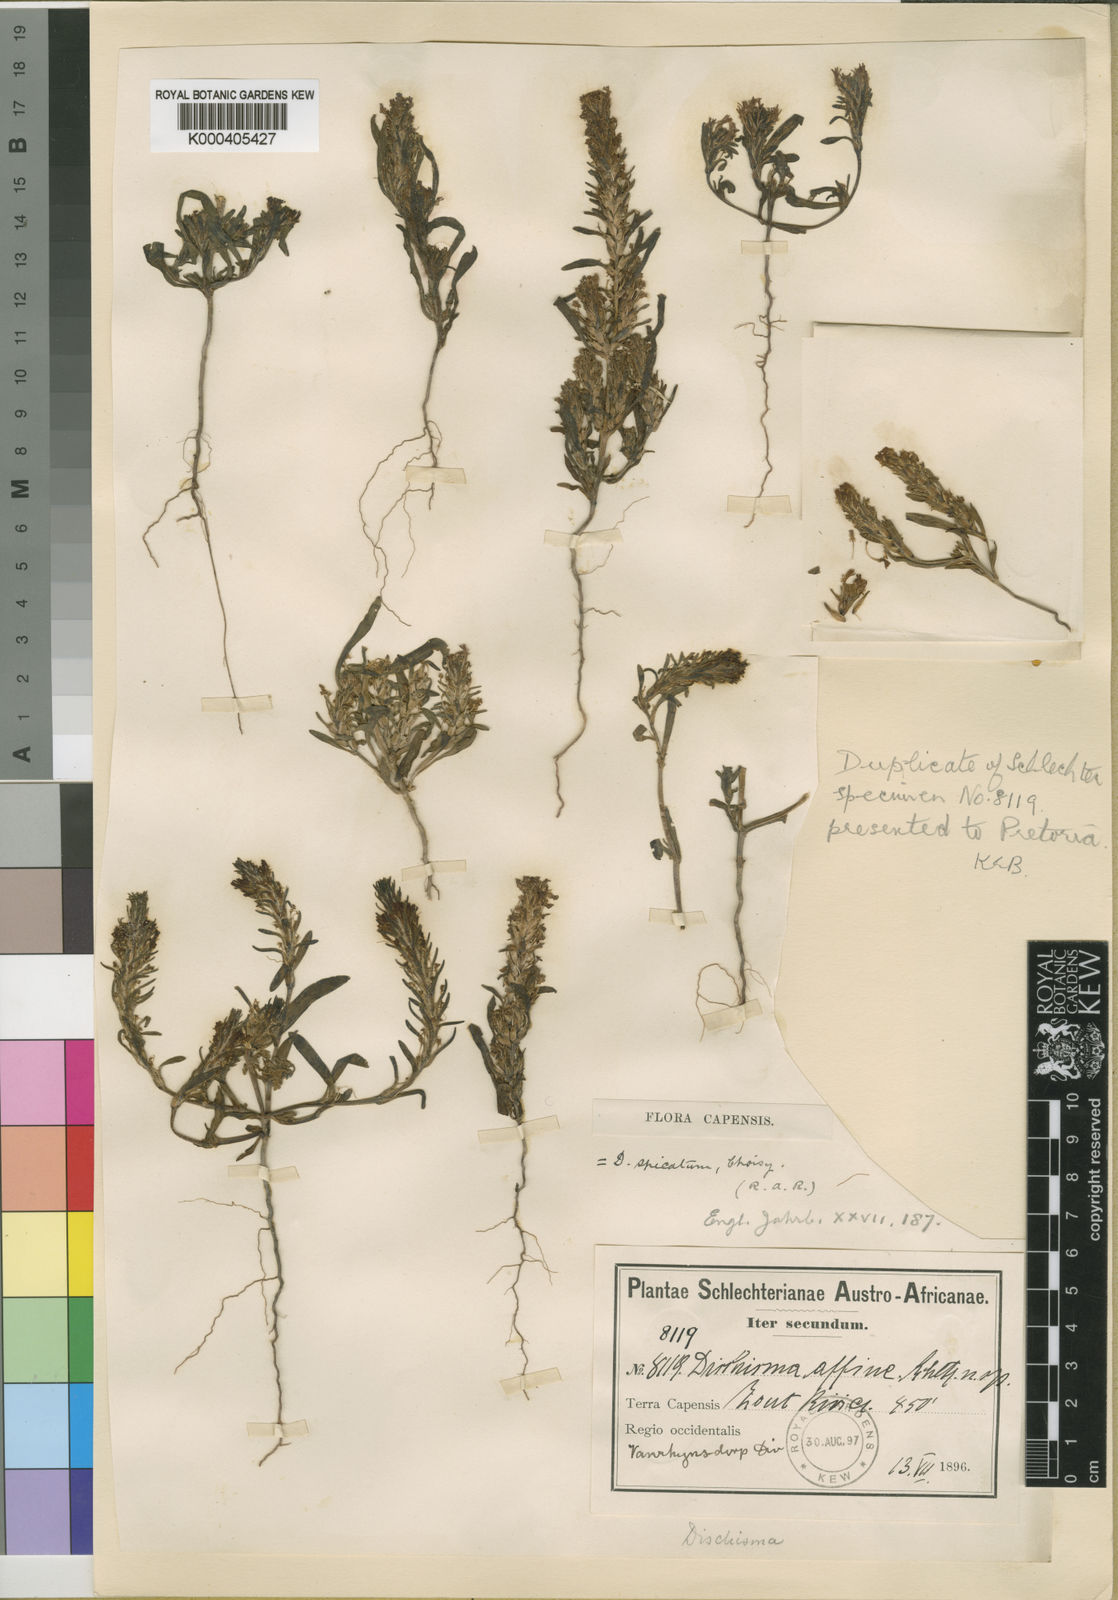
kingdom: Plantae
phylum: Tracheophyta
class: Magnoliopsida
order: Lamiales
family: Scrophulariaceae
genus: Dischisma
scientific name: Dischisma spicatum
